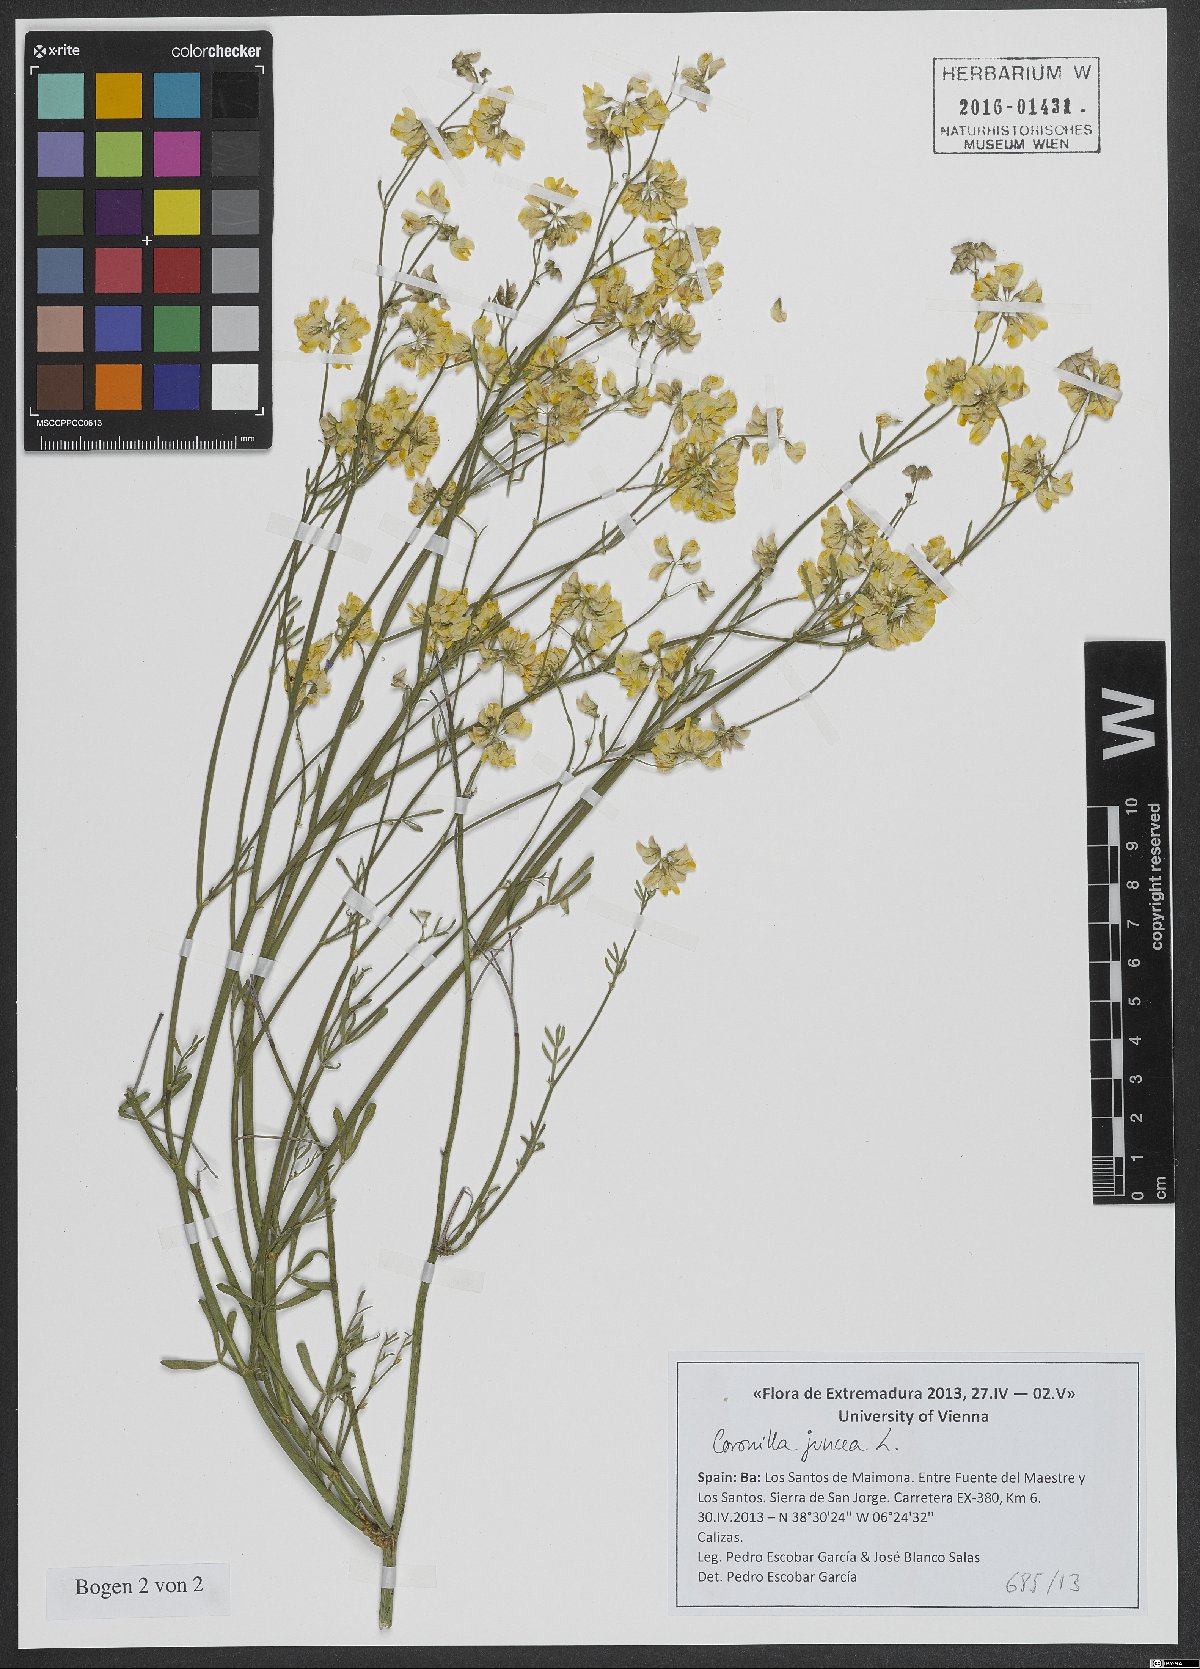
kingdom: Plantae
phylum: Tracheophyta
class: Magnoliopsida
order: Fabales
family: Fabaceae
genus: Coronilla
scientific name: Coronilla juncea
